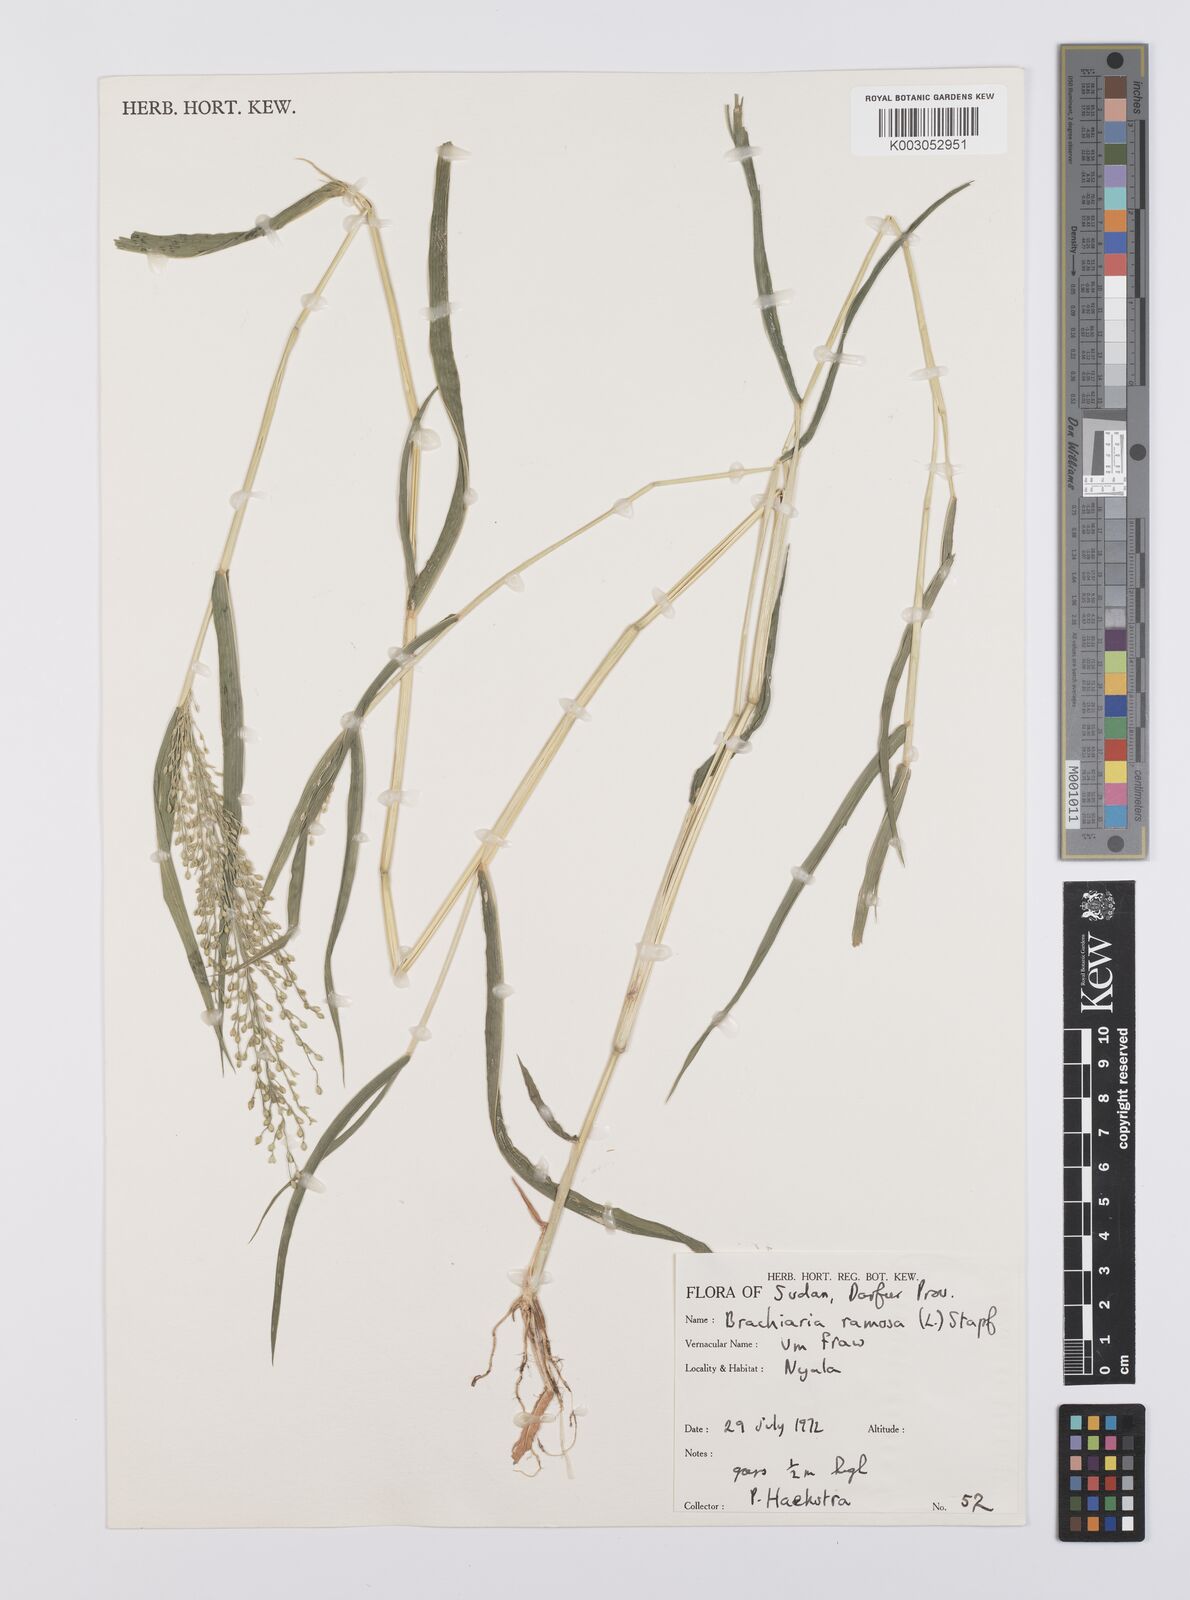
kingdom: Plantae
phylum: Tracheophyta
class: Liliopsida
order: Poales
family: Poaceae
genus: Urochloa
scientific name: Urochloa deflexa
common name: Guinea millet
